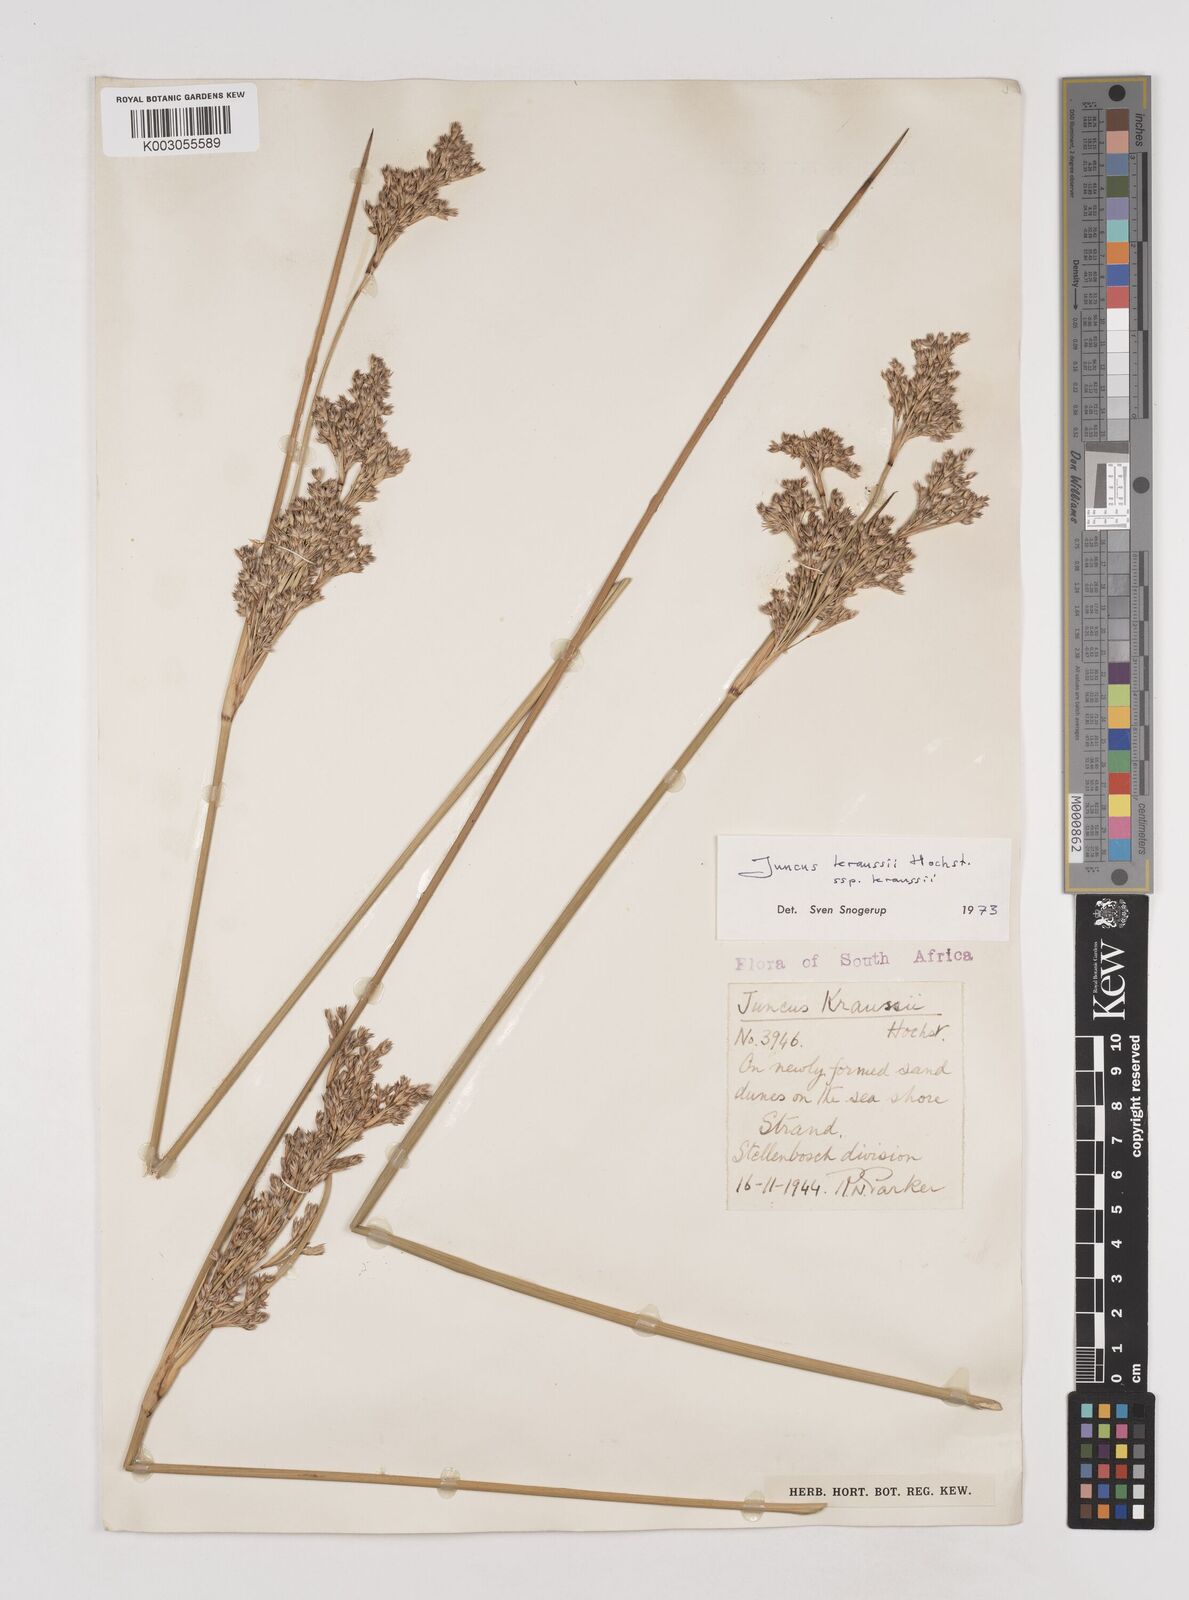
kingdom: Plantae
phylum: Tracheophyta
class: Liliopsida
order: Poales
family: Juncaceae
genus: Juncus
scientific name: Juncus kraussii
